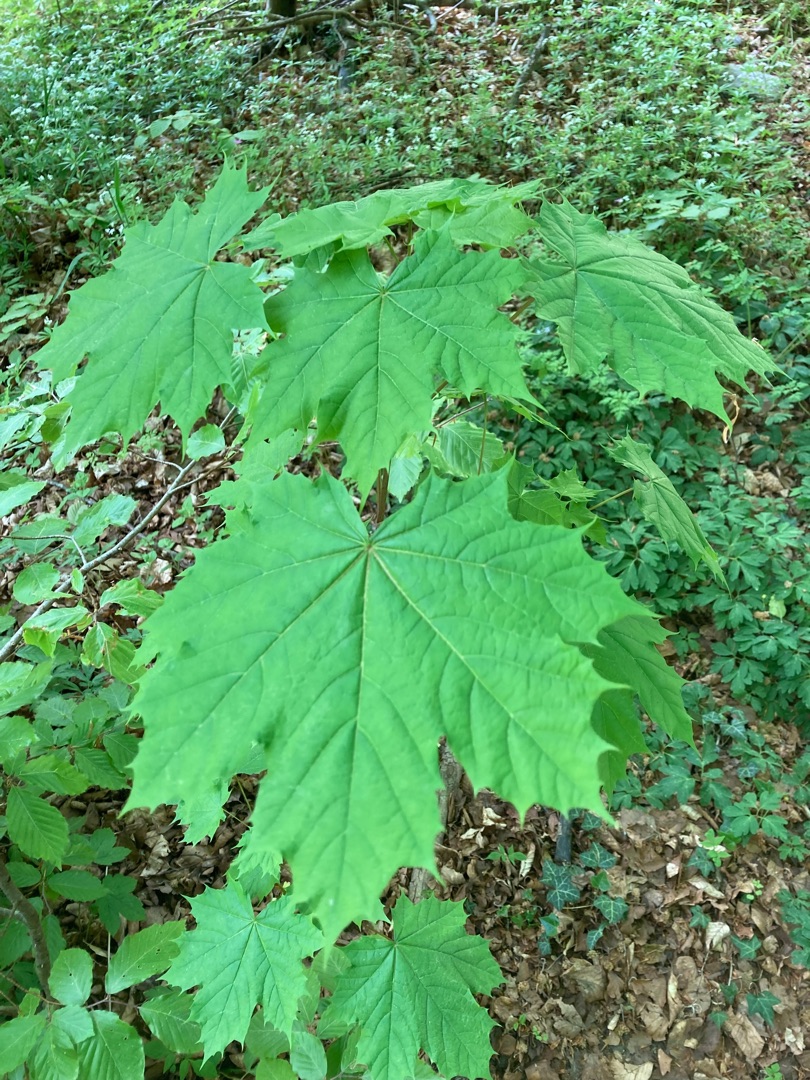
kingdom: Plantae
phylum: Tracheophyta
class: Magnoliopsida
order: Sapindales
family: Sapindaceae
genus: Acer
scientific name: Acer platanoides
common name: Spids-løn
